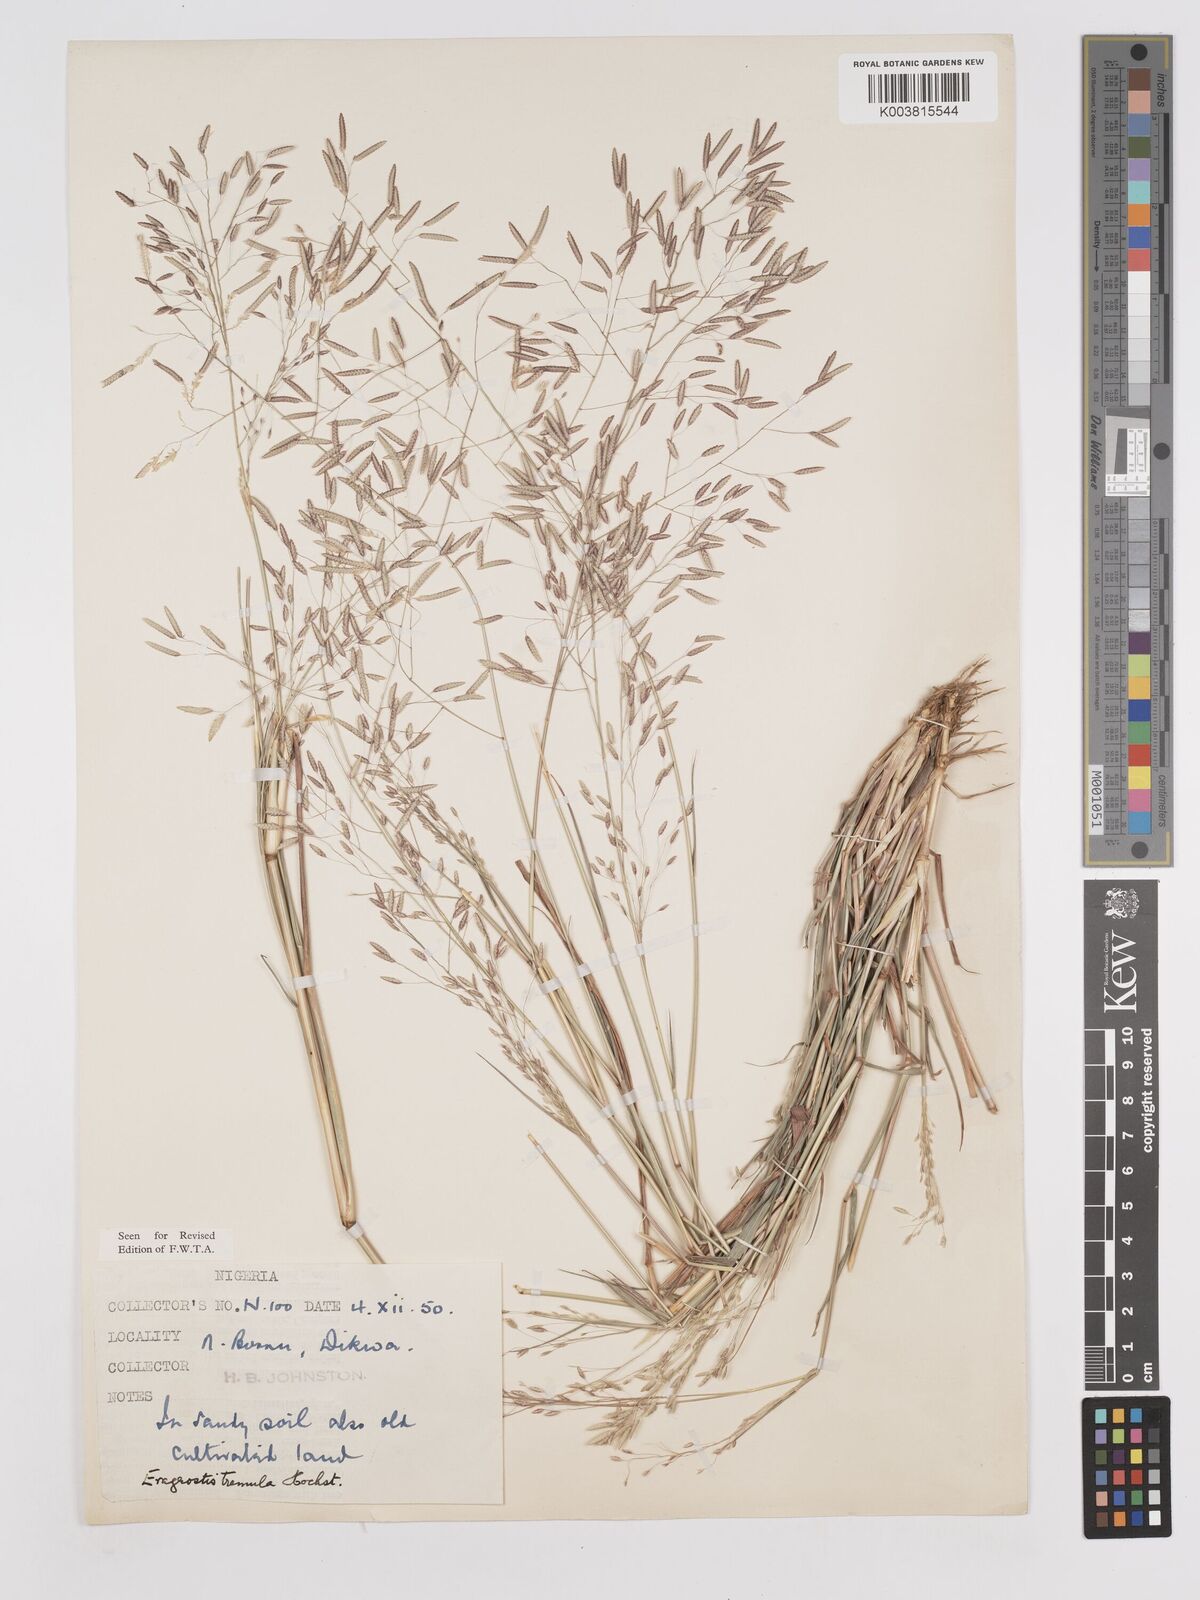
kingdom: Plantae
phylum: Tracheophyta
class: Liliopsida
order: Poales
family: Poaceae
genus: Eragrostis
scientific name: Eragrostis tremula
